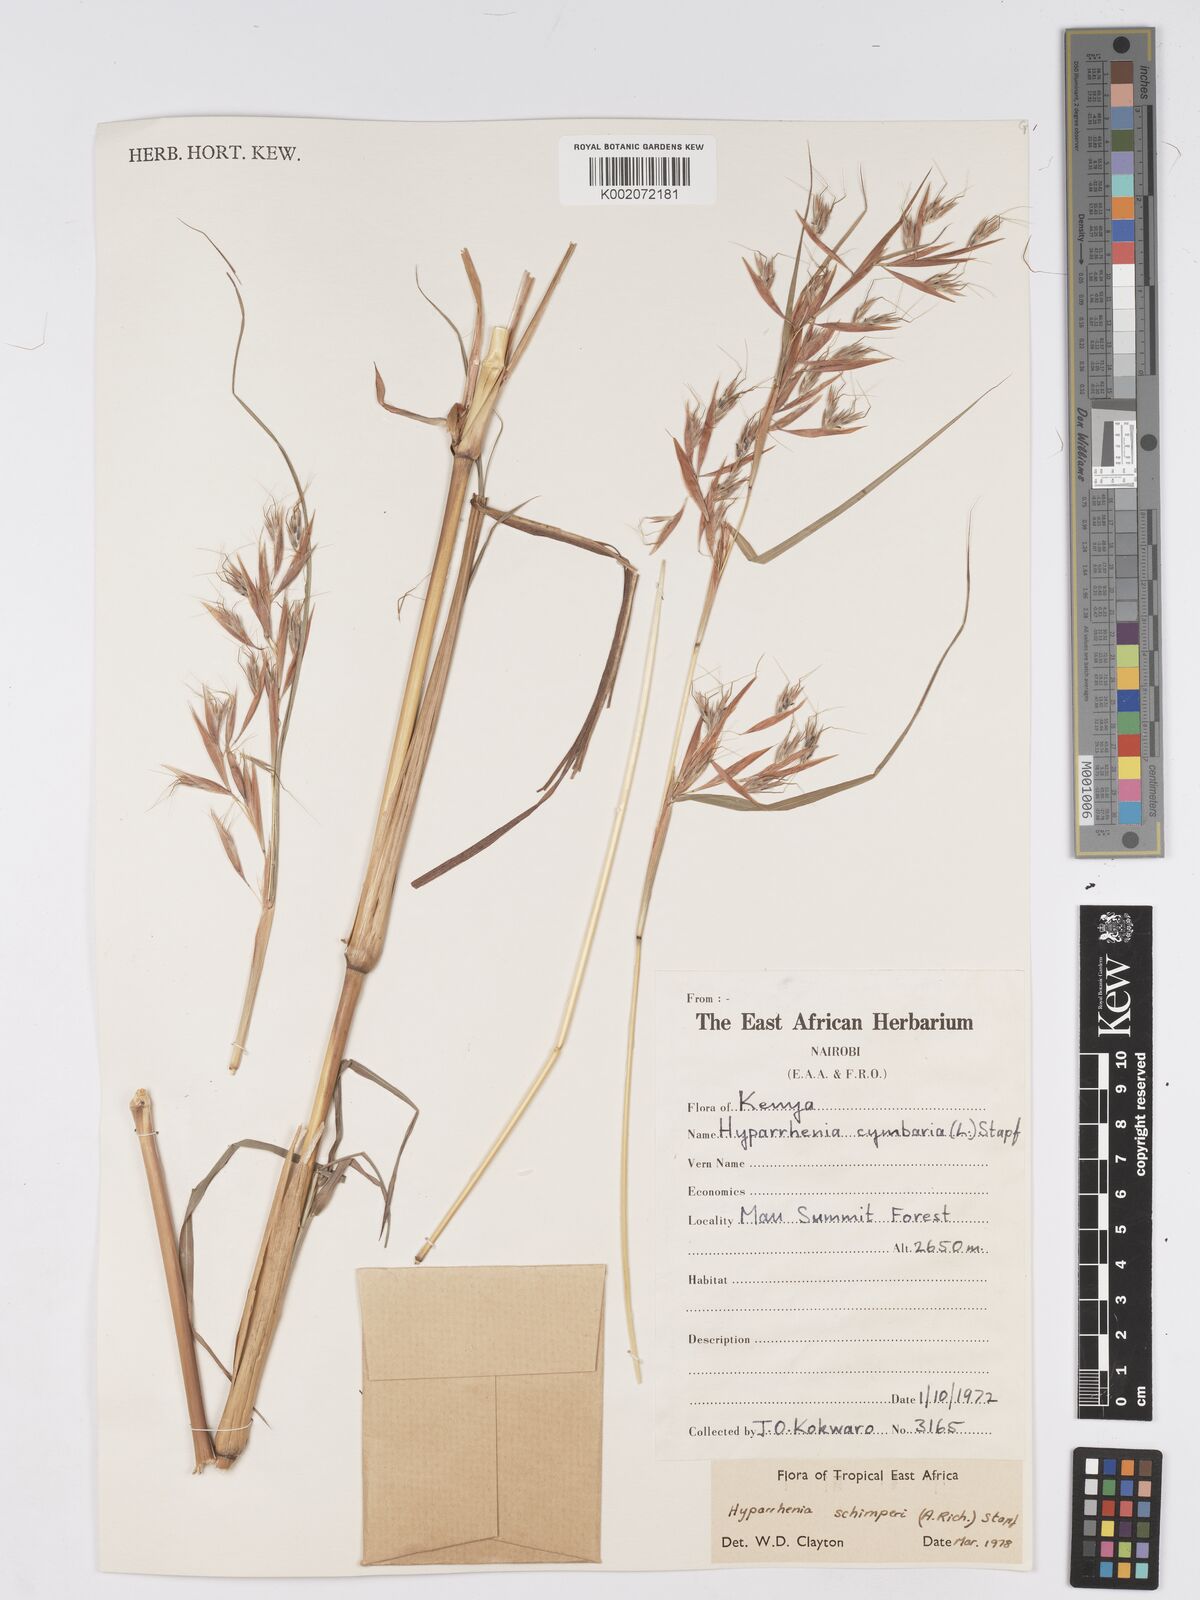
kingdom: Plantae
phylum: Tracheophyta
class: Liliopsida
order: Poales
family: Poaceae
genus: Hyparrhenia
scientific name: Hyparrhenia schimperi
